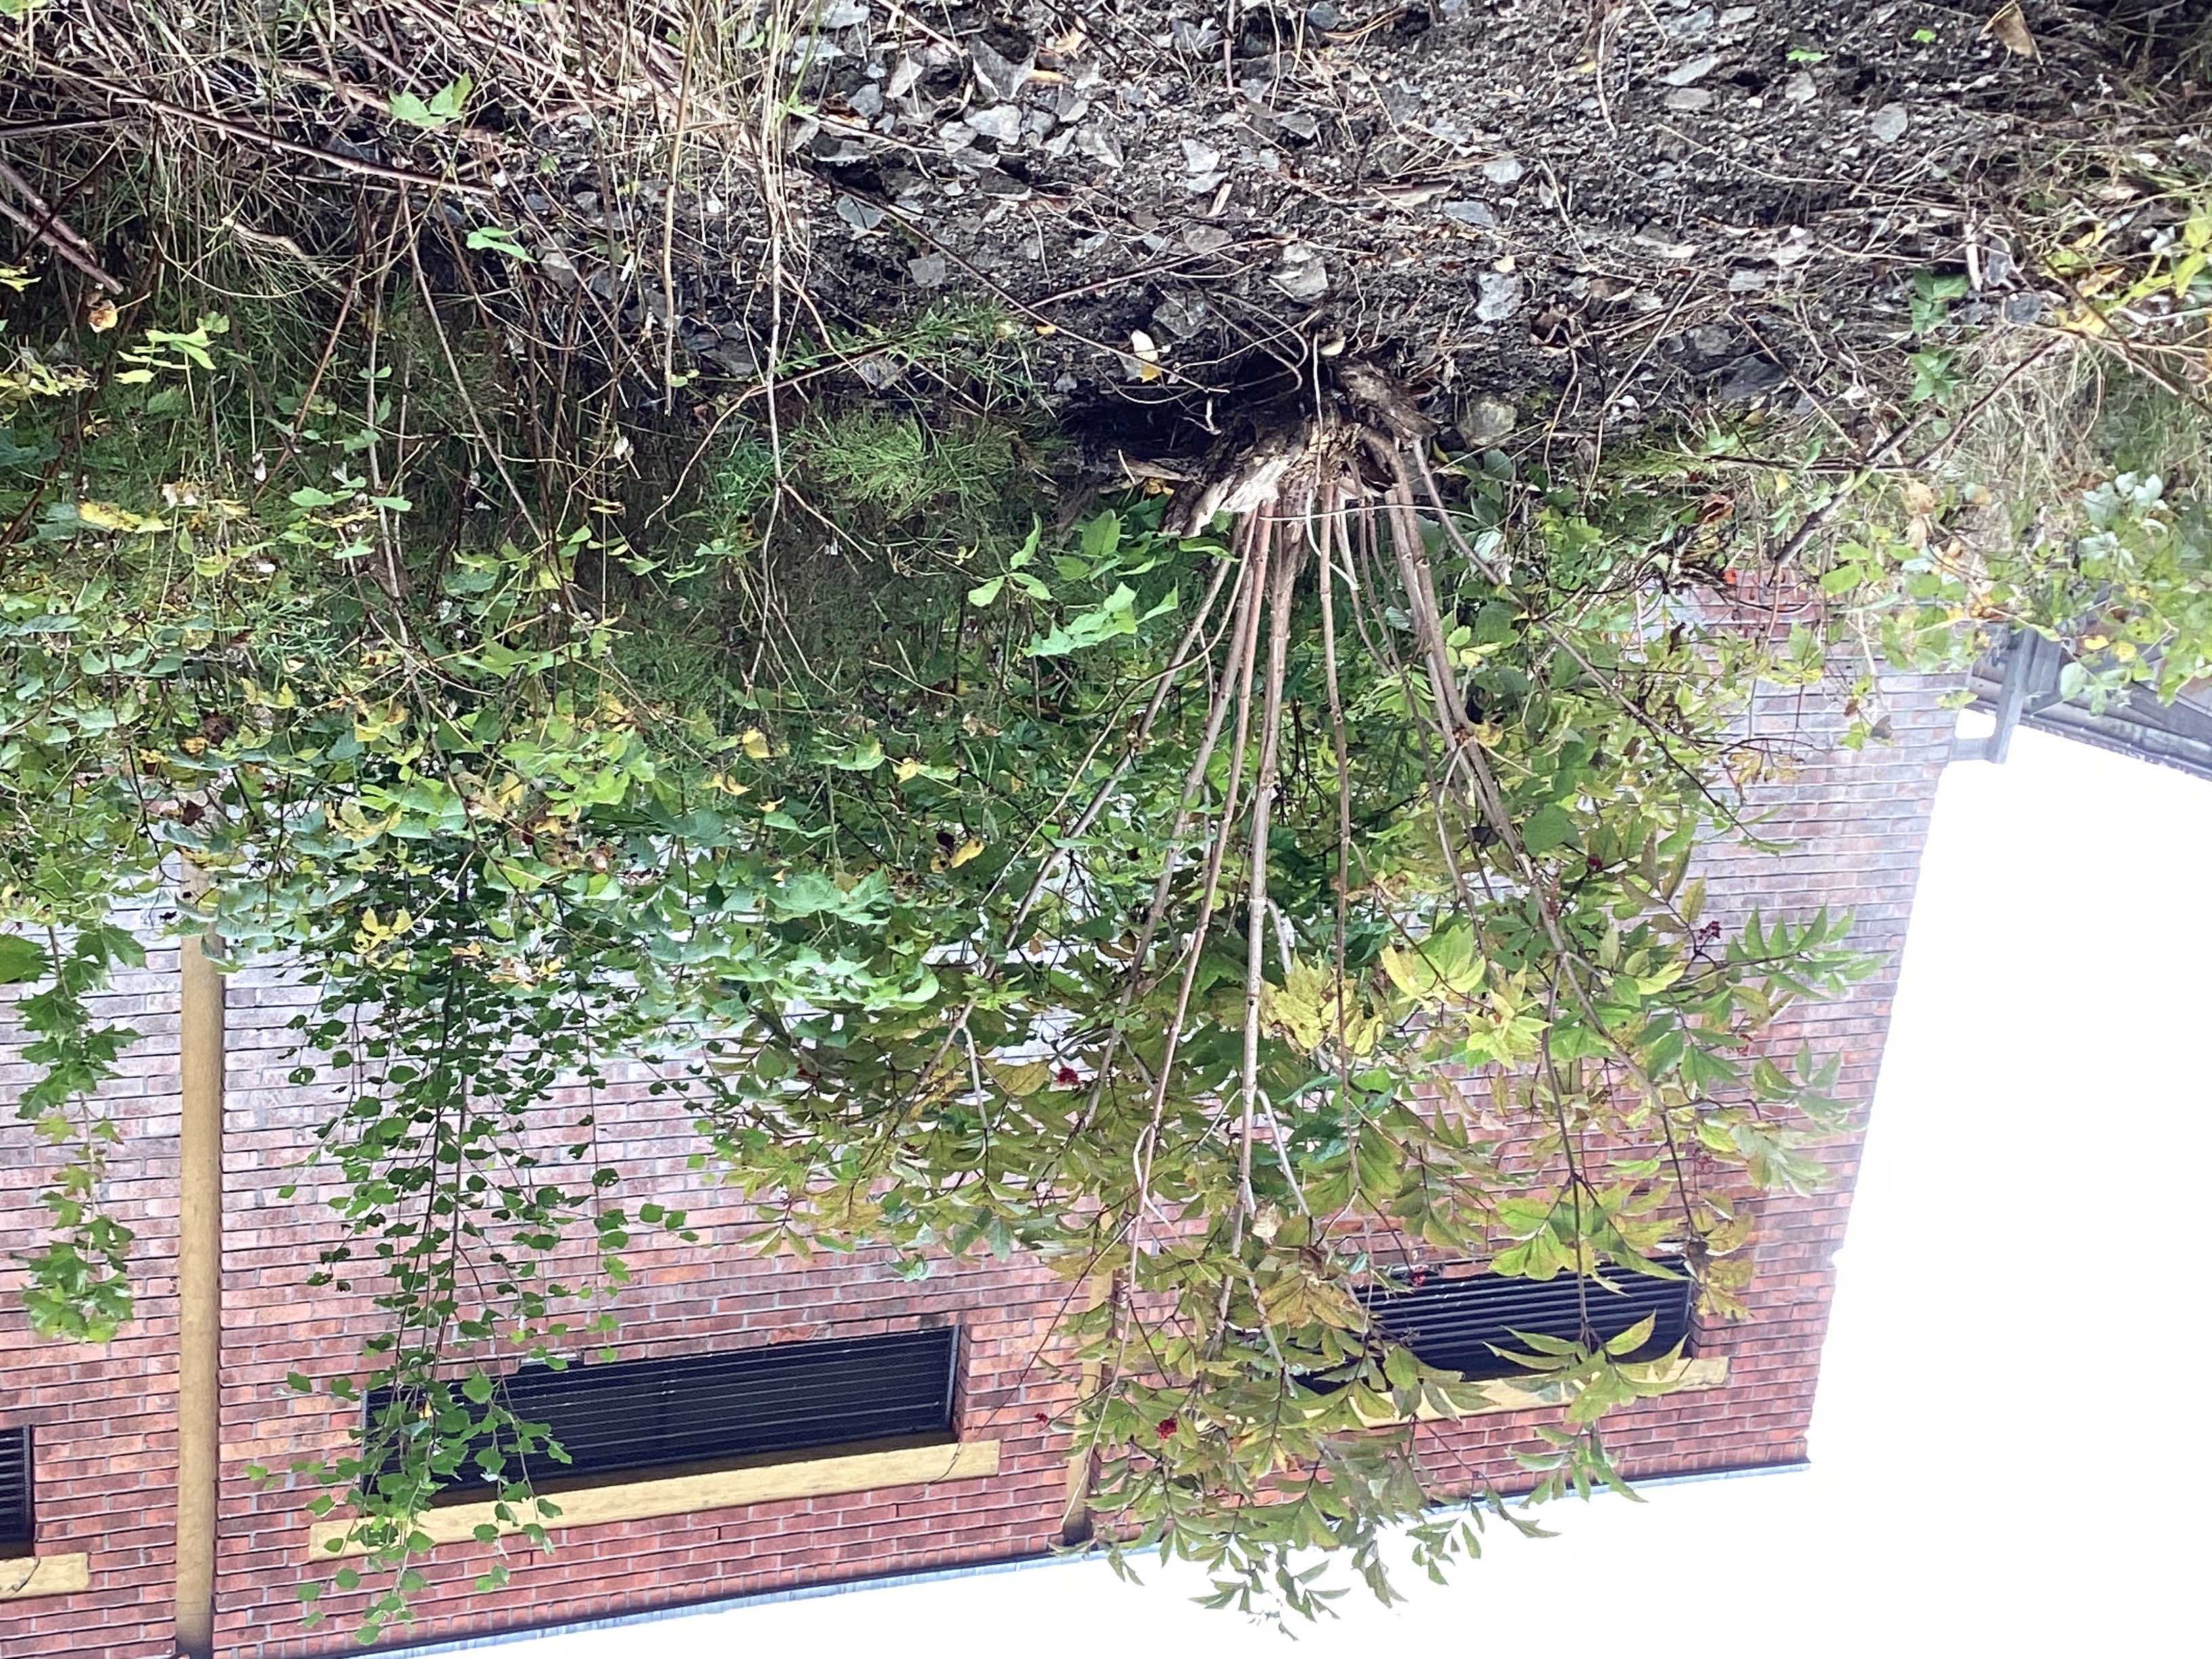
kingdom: Plantae
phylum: Tracheophyta
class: Magnoliopsida
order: Dipsacales
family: Viburnaceae
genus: Sambucus
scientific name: Sambucus racemosa
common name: rødhyll
